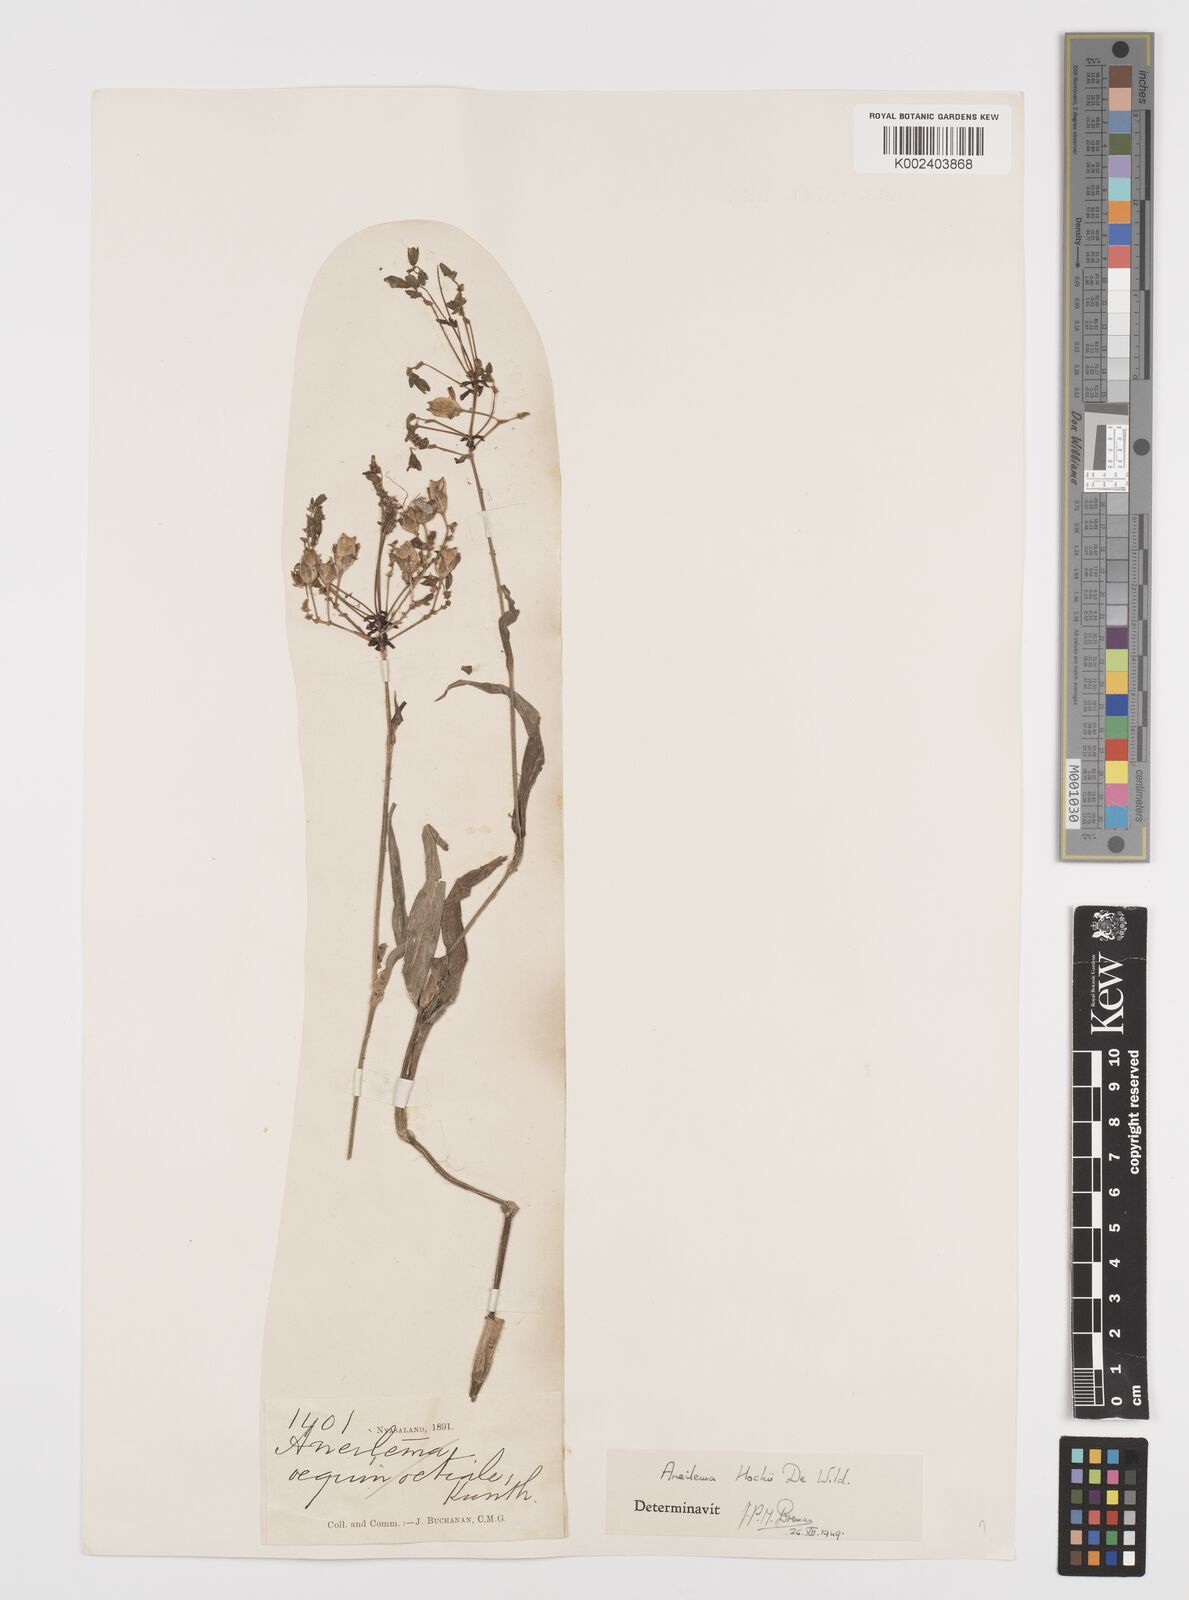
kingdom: Plantae
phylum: Tracheophyta
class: Liliopsida
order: Commelinales
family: Commelinaceae
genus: Aneilema
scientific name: Aneilema hockii
